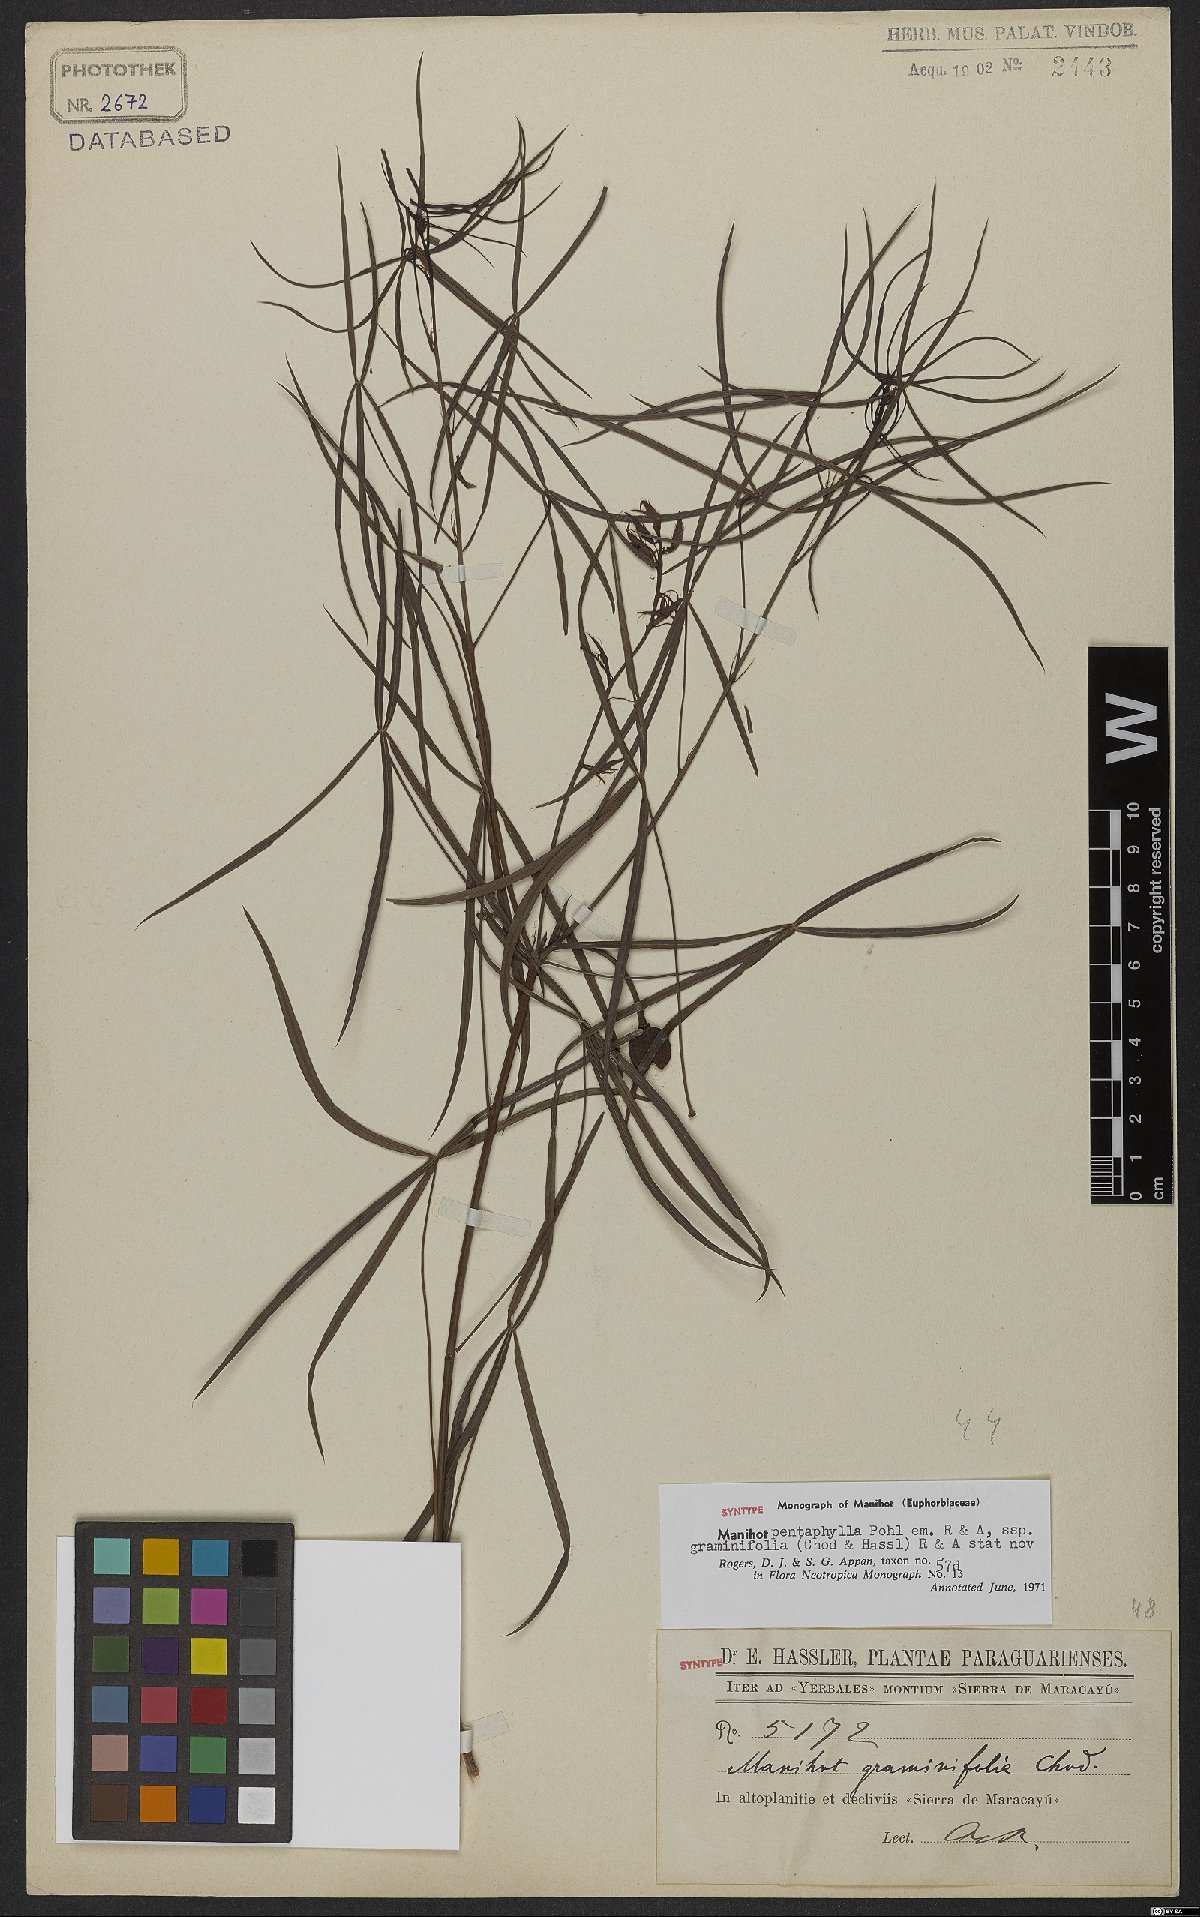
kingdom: Plantae
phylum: Tracheophyta
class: Magnoliopsida
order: Malpighiales
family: Euphorbiaceae
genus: Manihot
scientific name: Manihot pentaphylla
